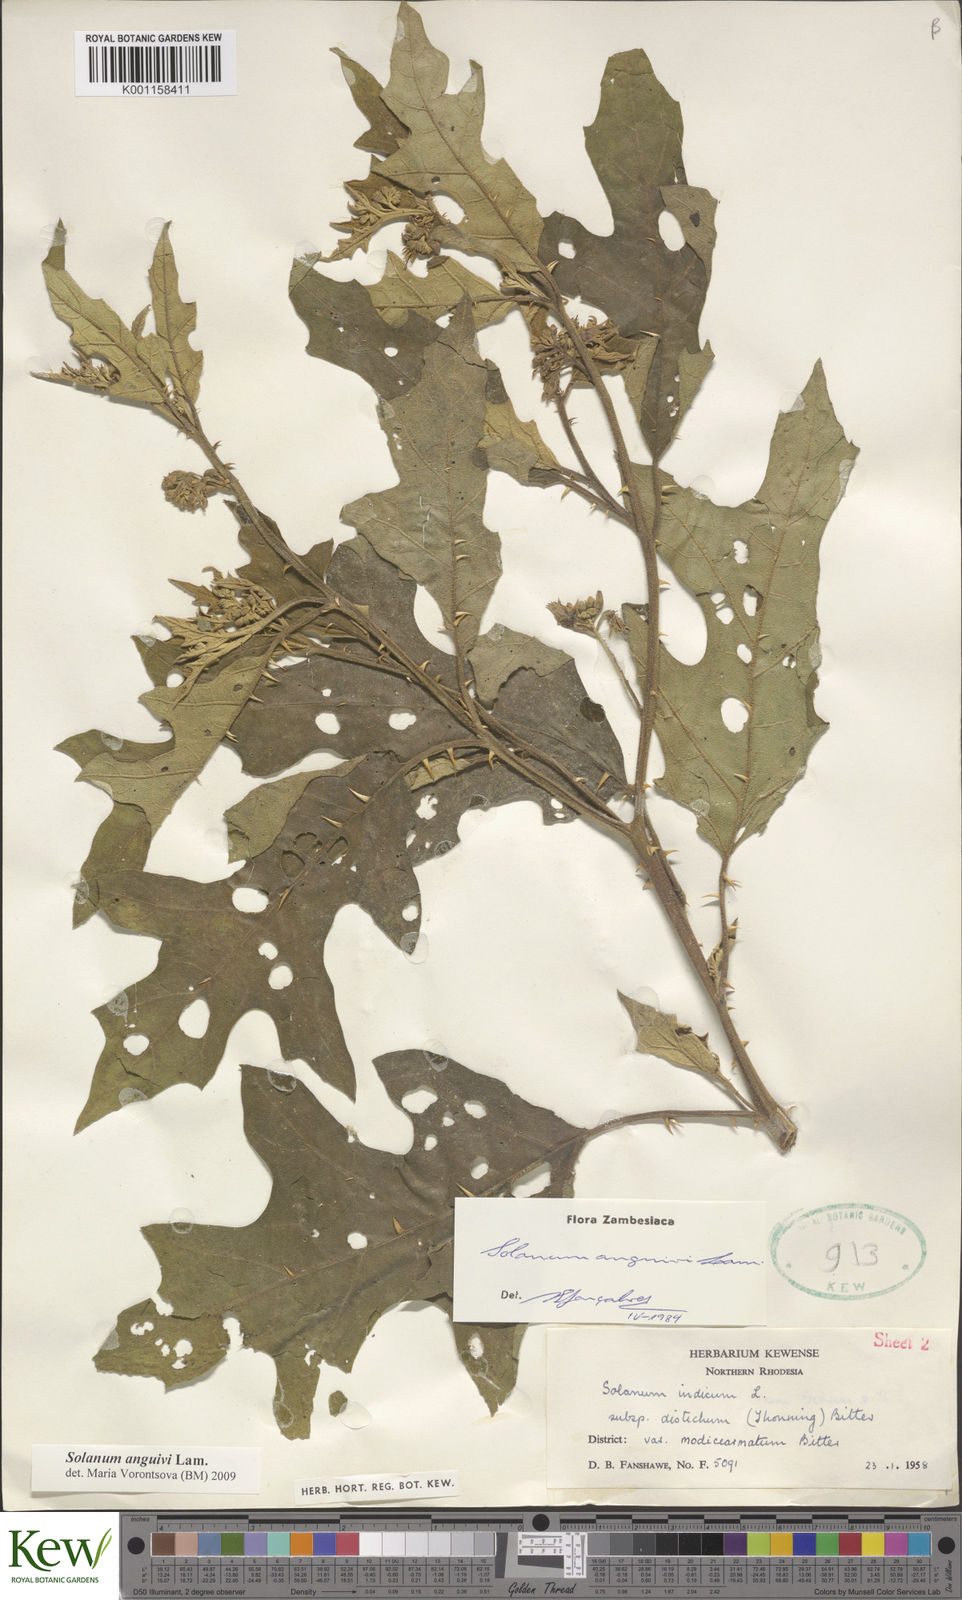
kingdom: Plantae
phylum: Tracheophyta
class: Magnoliopsida
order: Solanales
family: Solanaceae
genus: Solanum
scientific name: Solanum anguivi
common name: Forest bitterberry
